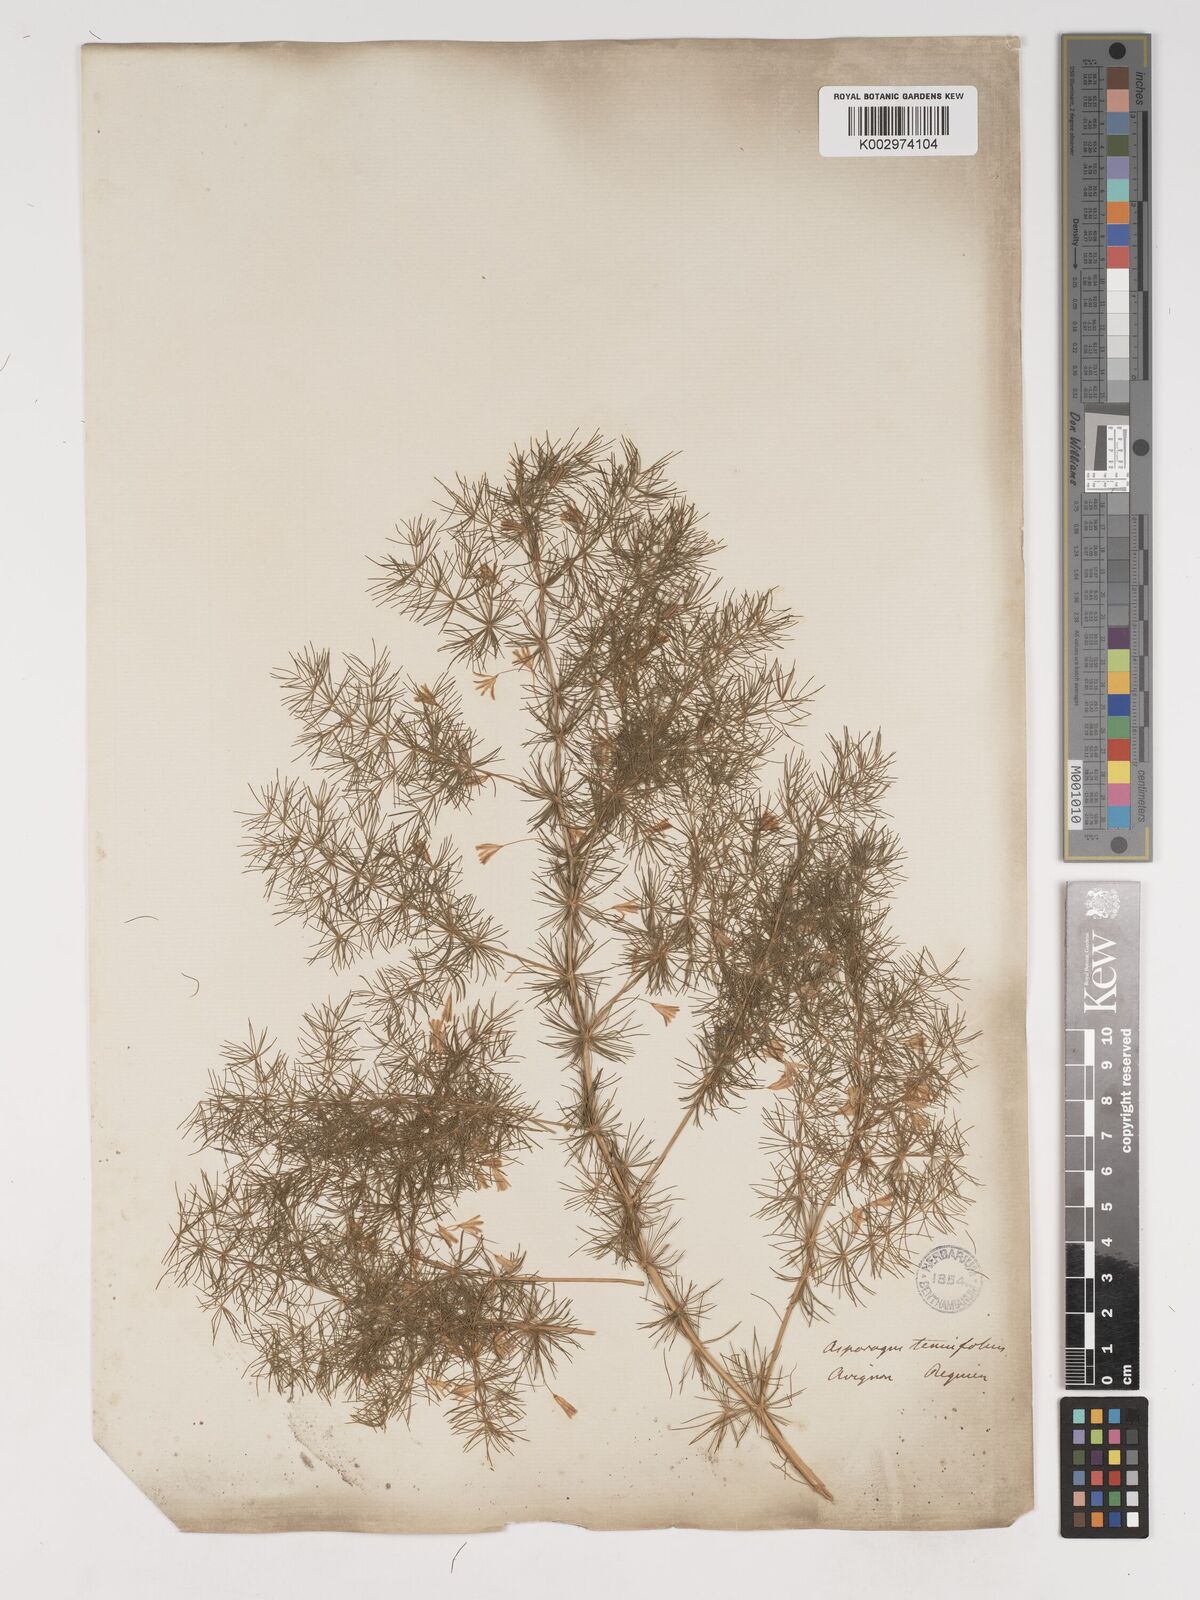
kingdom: Plantae
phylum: Tracheophyta
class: Liliopsida
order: Asparagales
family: Asparagaceae
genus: Asparagus
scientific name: Asparagus tenuifolius
